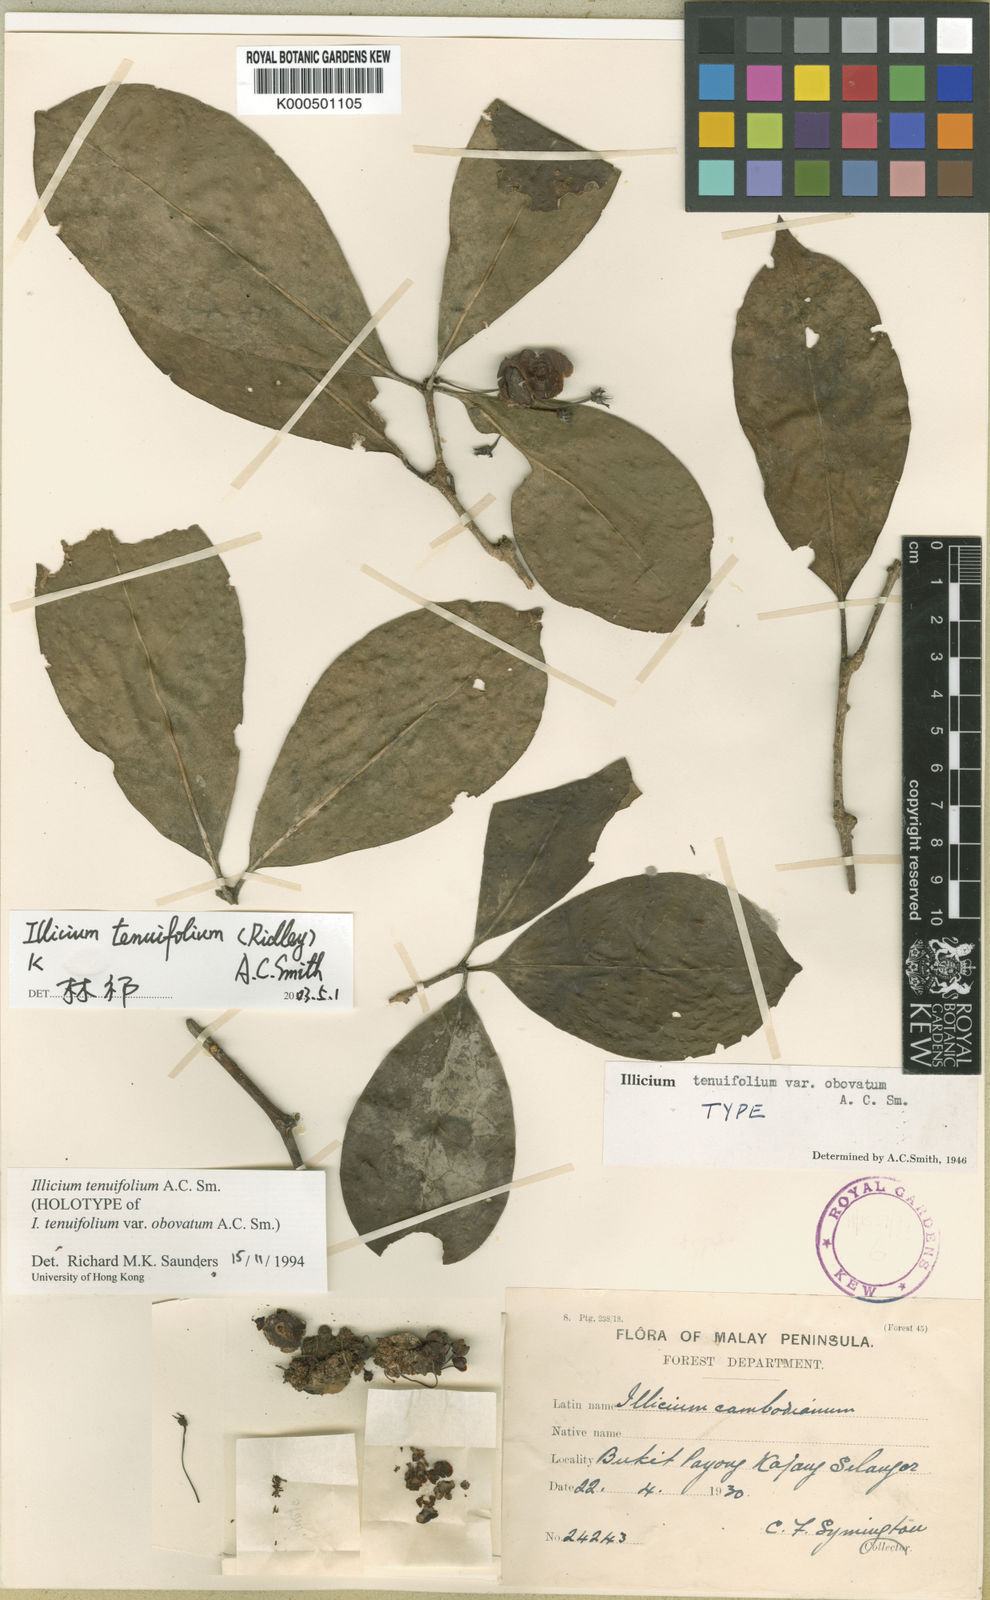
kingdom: Plantae
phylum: Tracheophyta
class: Magnoliopsida
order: Austrobaileyales
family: Schisandraceae
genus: Illicium
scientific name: Illicium tenuifolium
